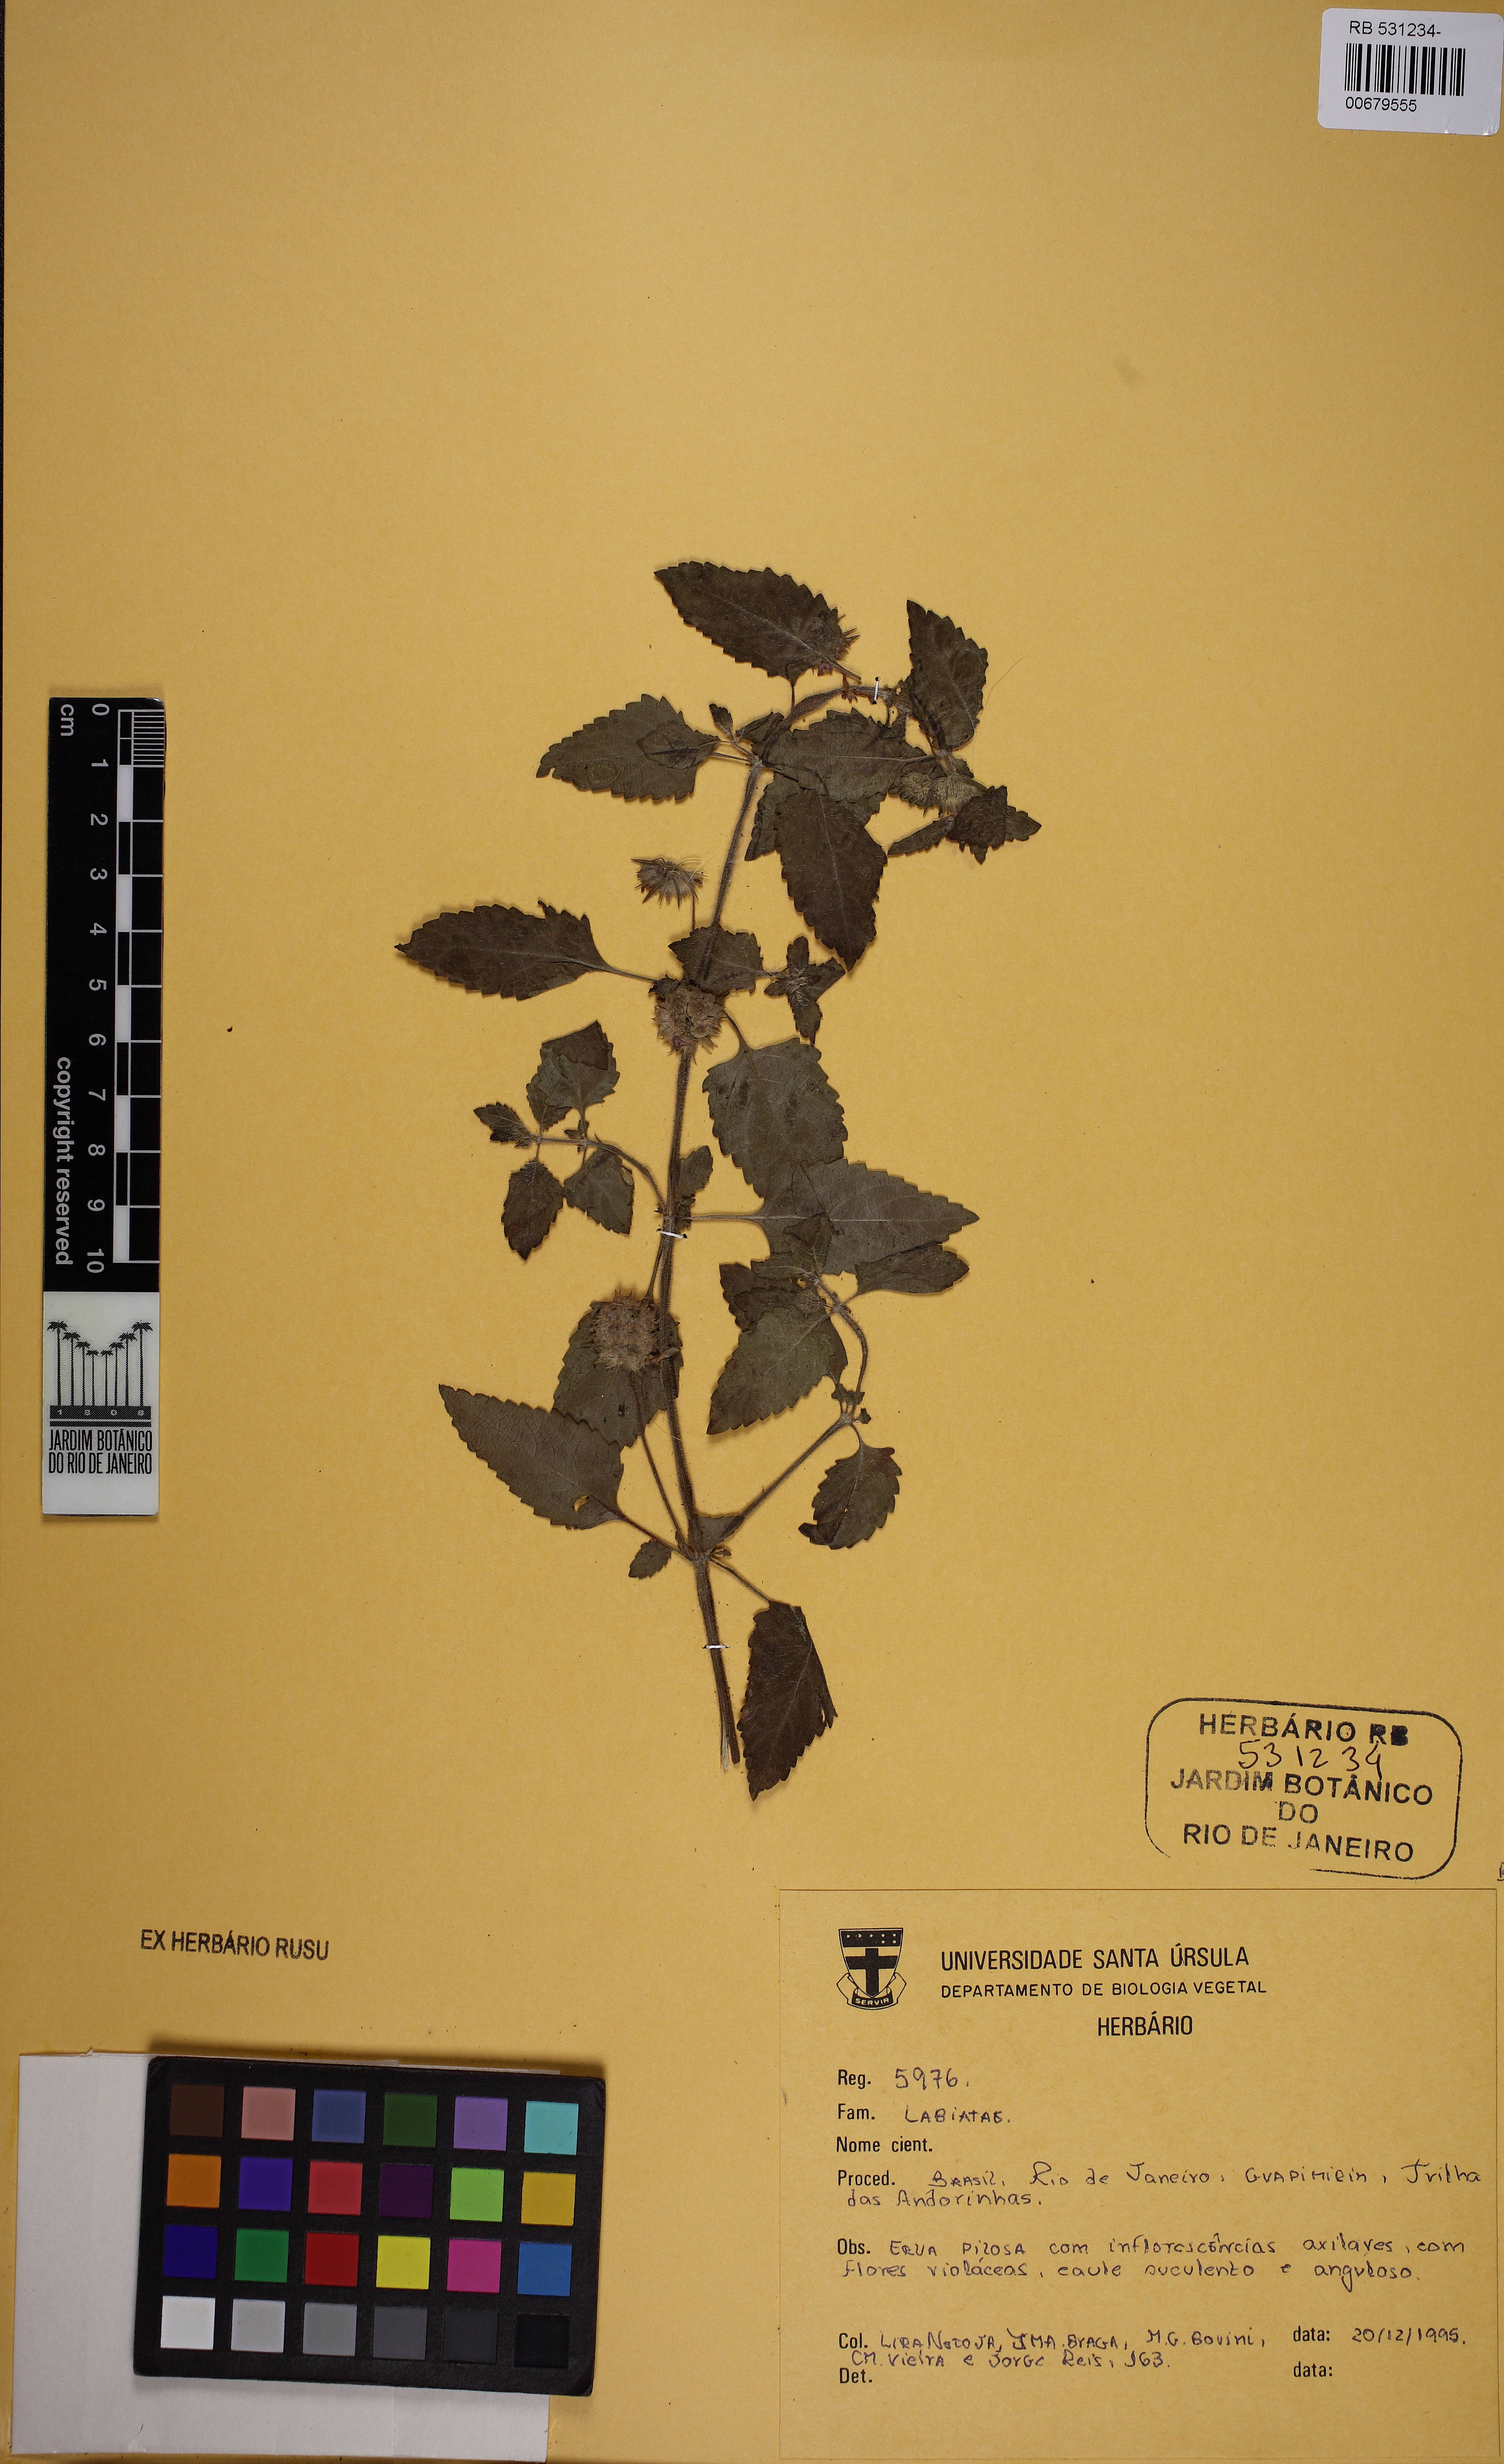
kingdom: Plantae
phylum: Tracheophyta
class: Magnoliopsida
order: Lamiales
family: Lamiaceae
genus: Marsypianthes
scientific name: Marsypianthes chamaedrys
